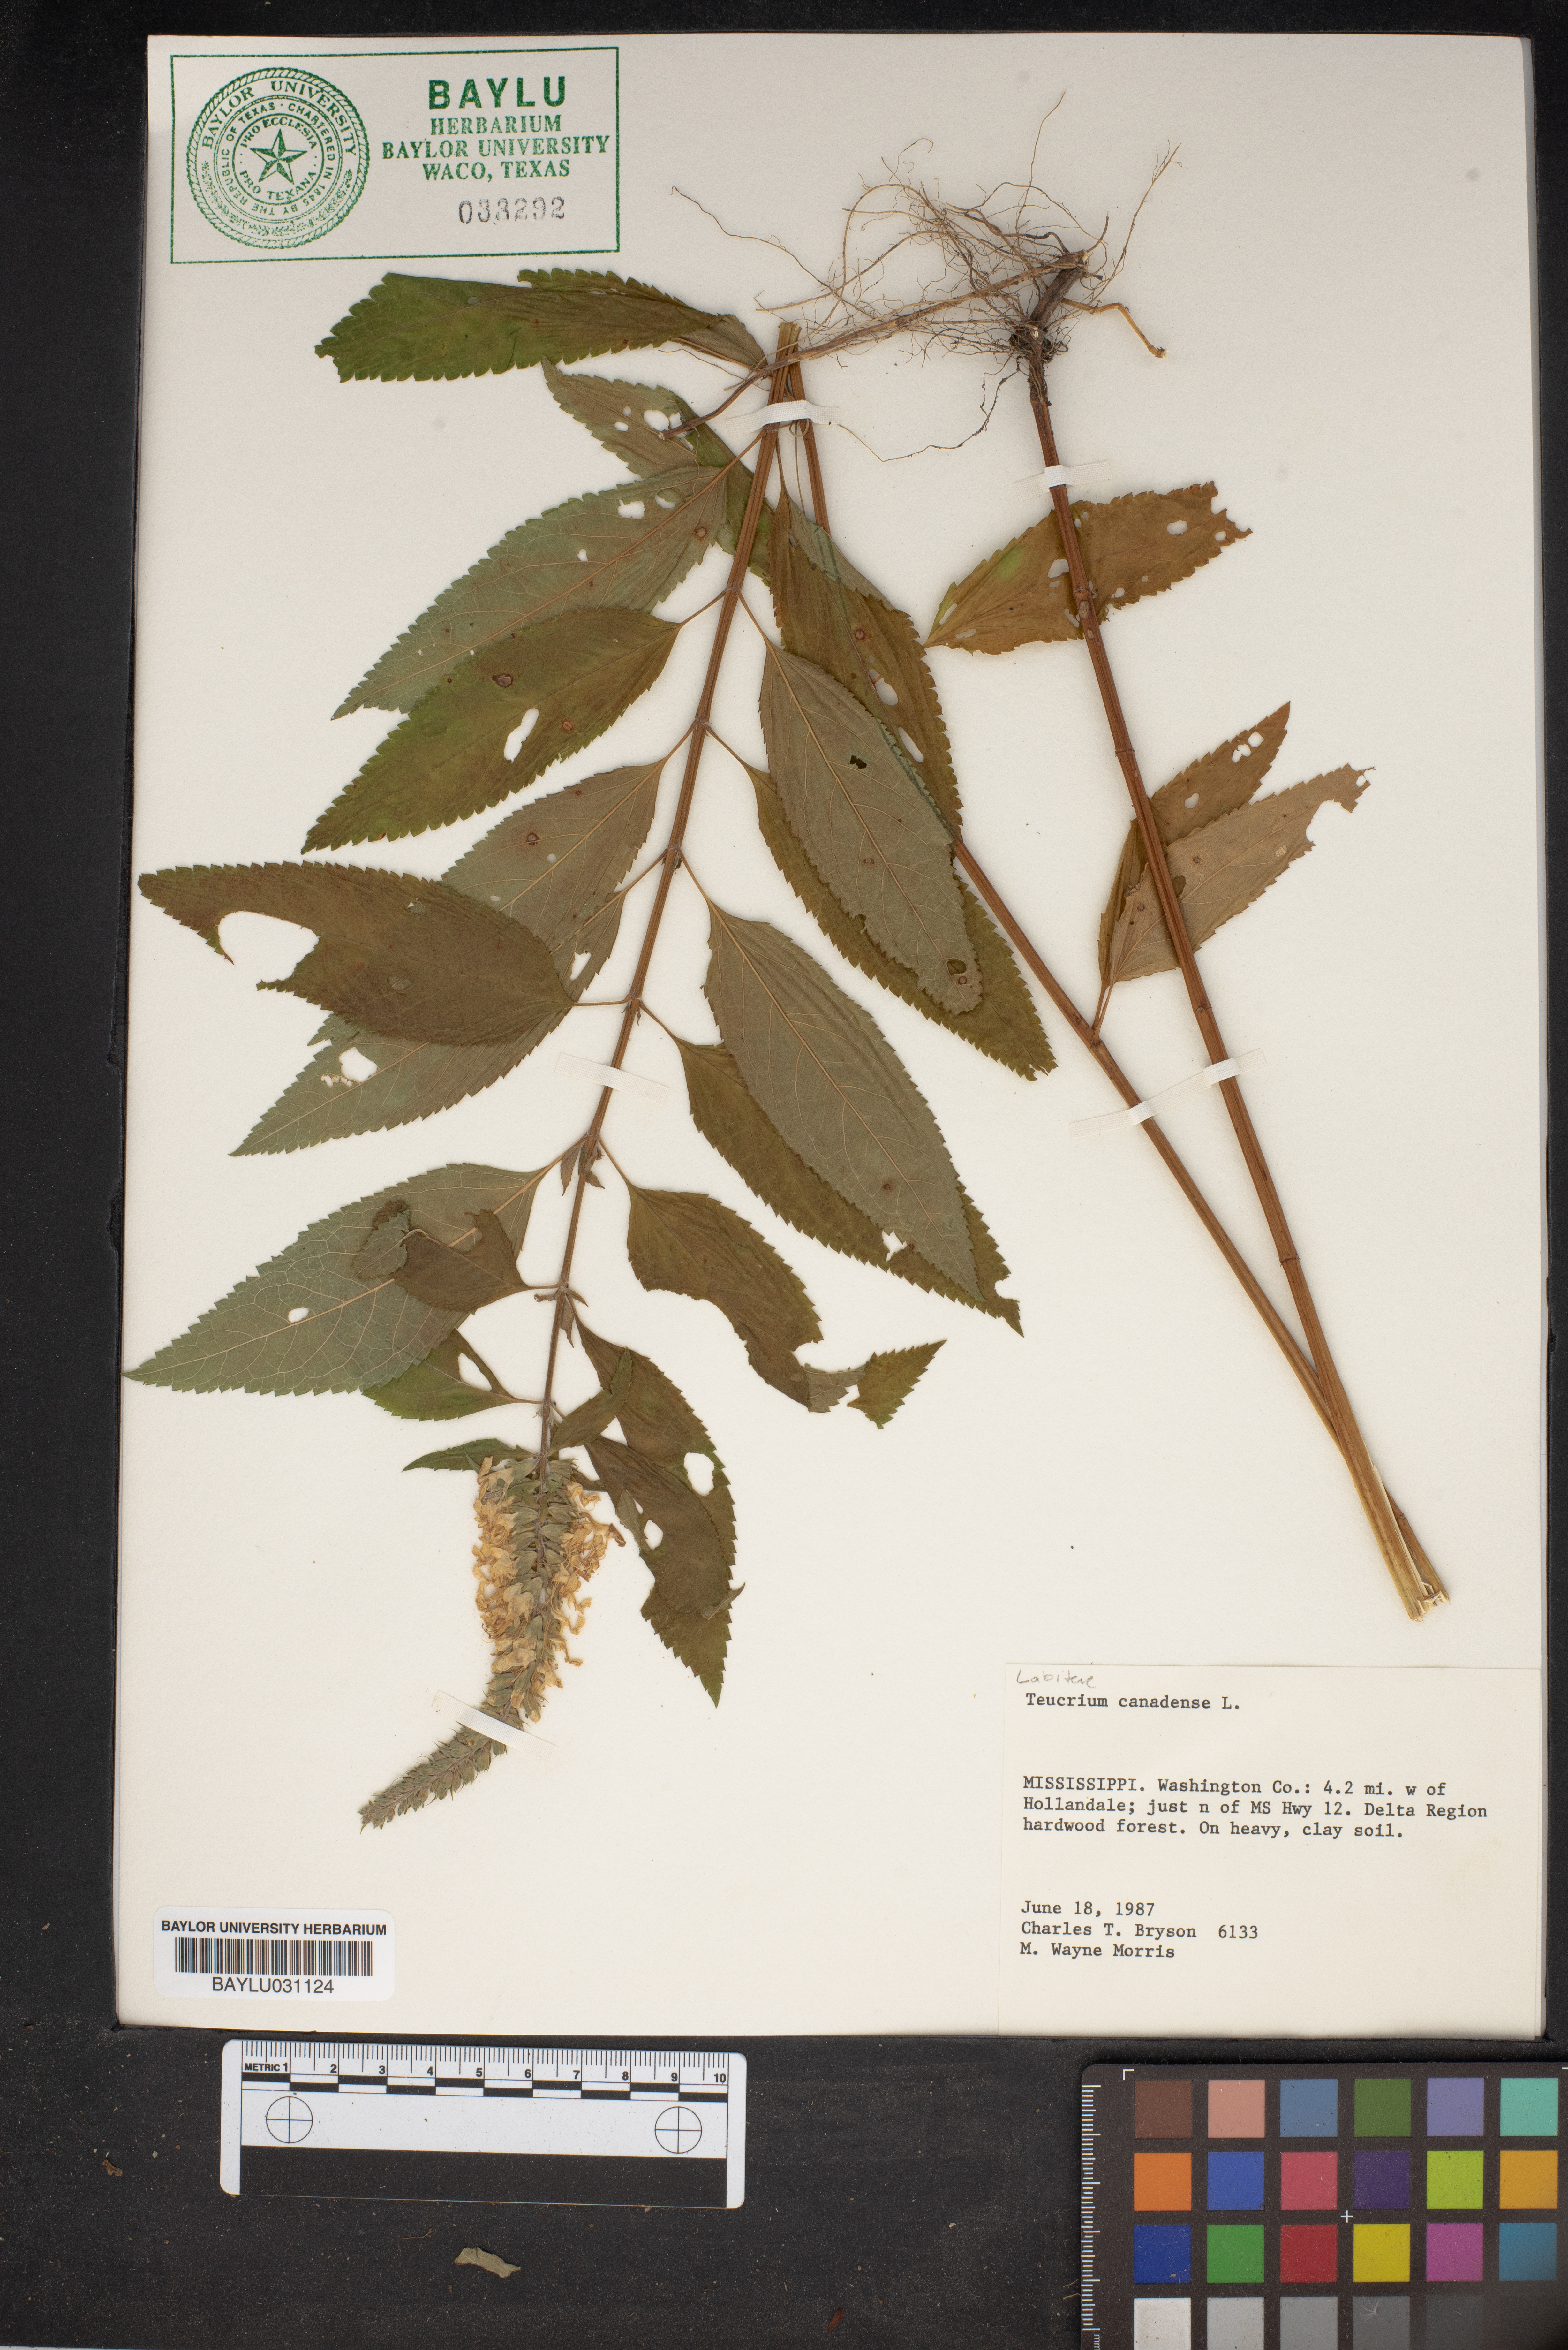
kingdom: Plantae
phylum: Tracheophyta
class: Magnoliopsida
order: Lamiales
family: Lamiaceae
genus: Teucrium
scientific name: Teucrium canadense
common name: American germander
